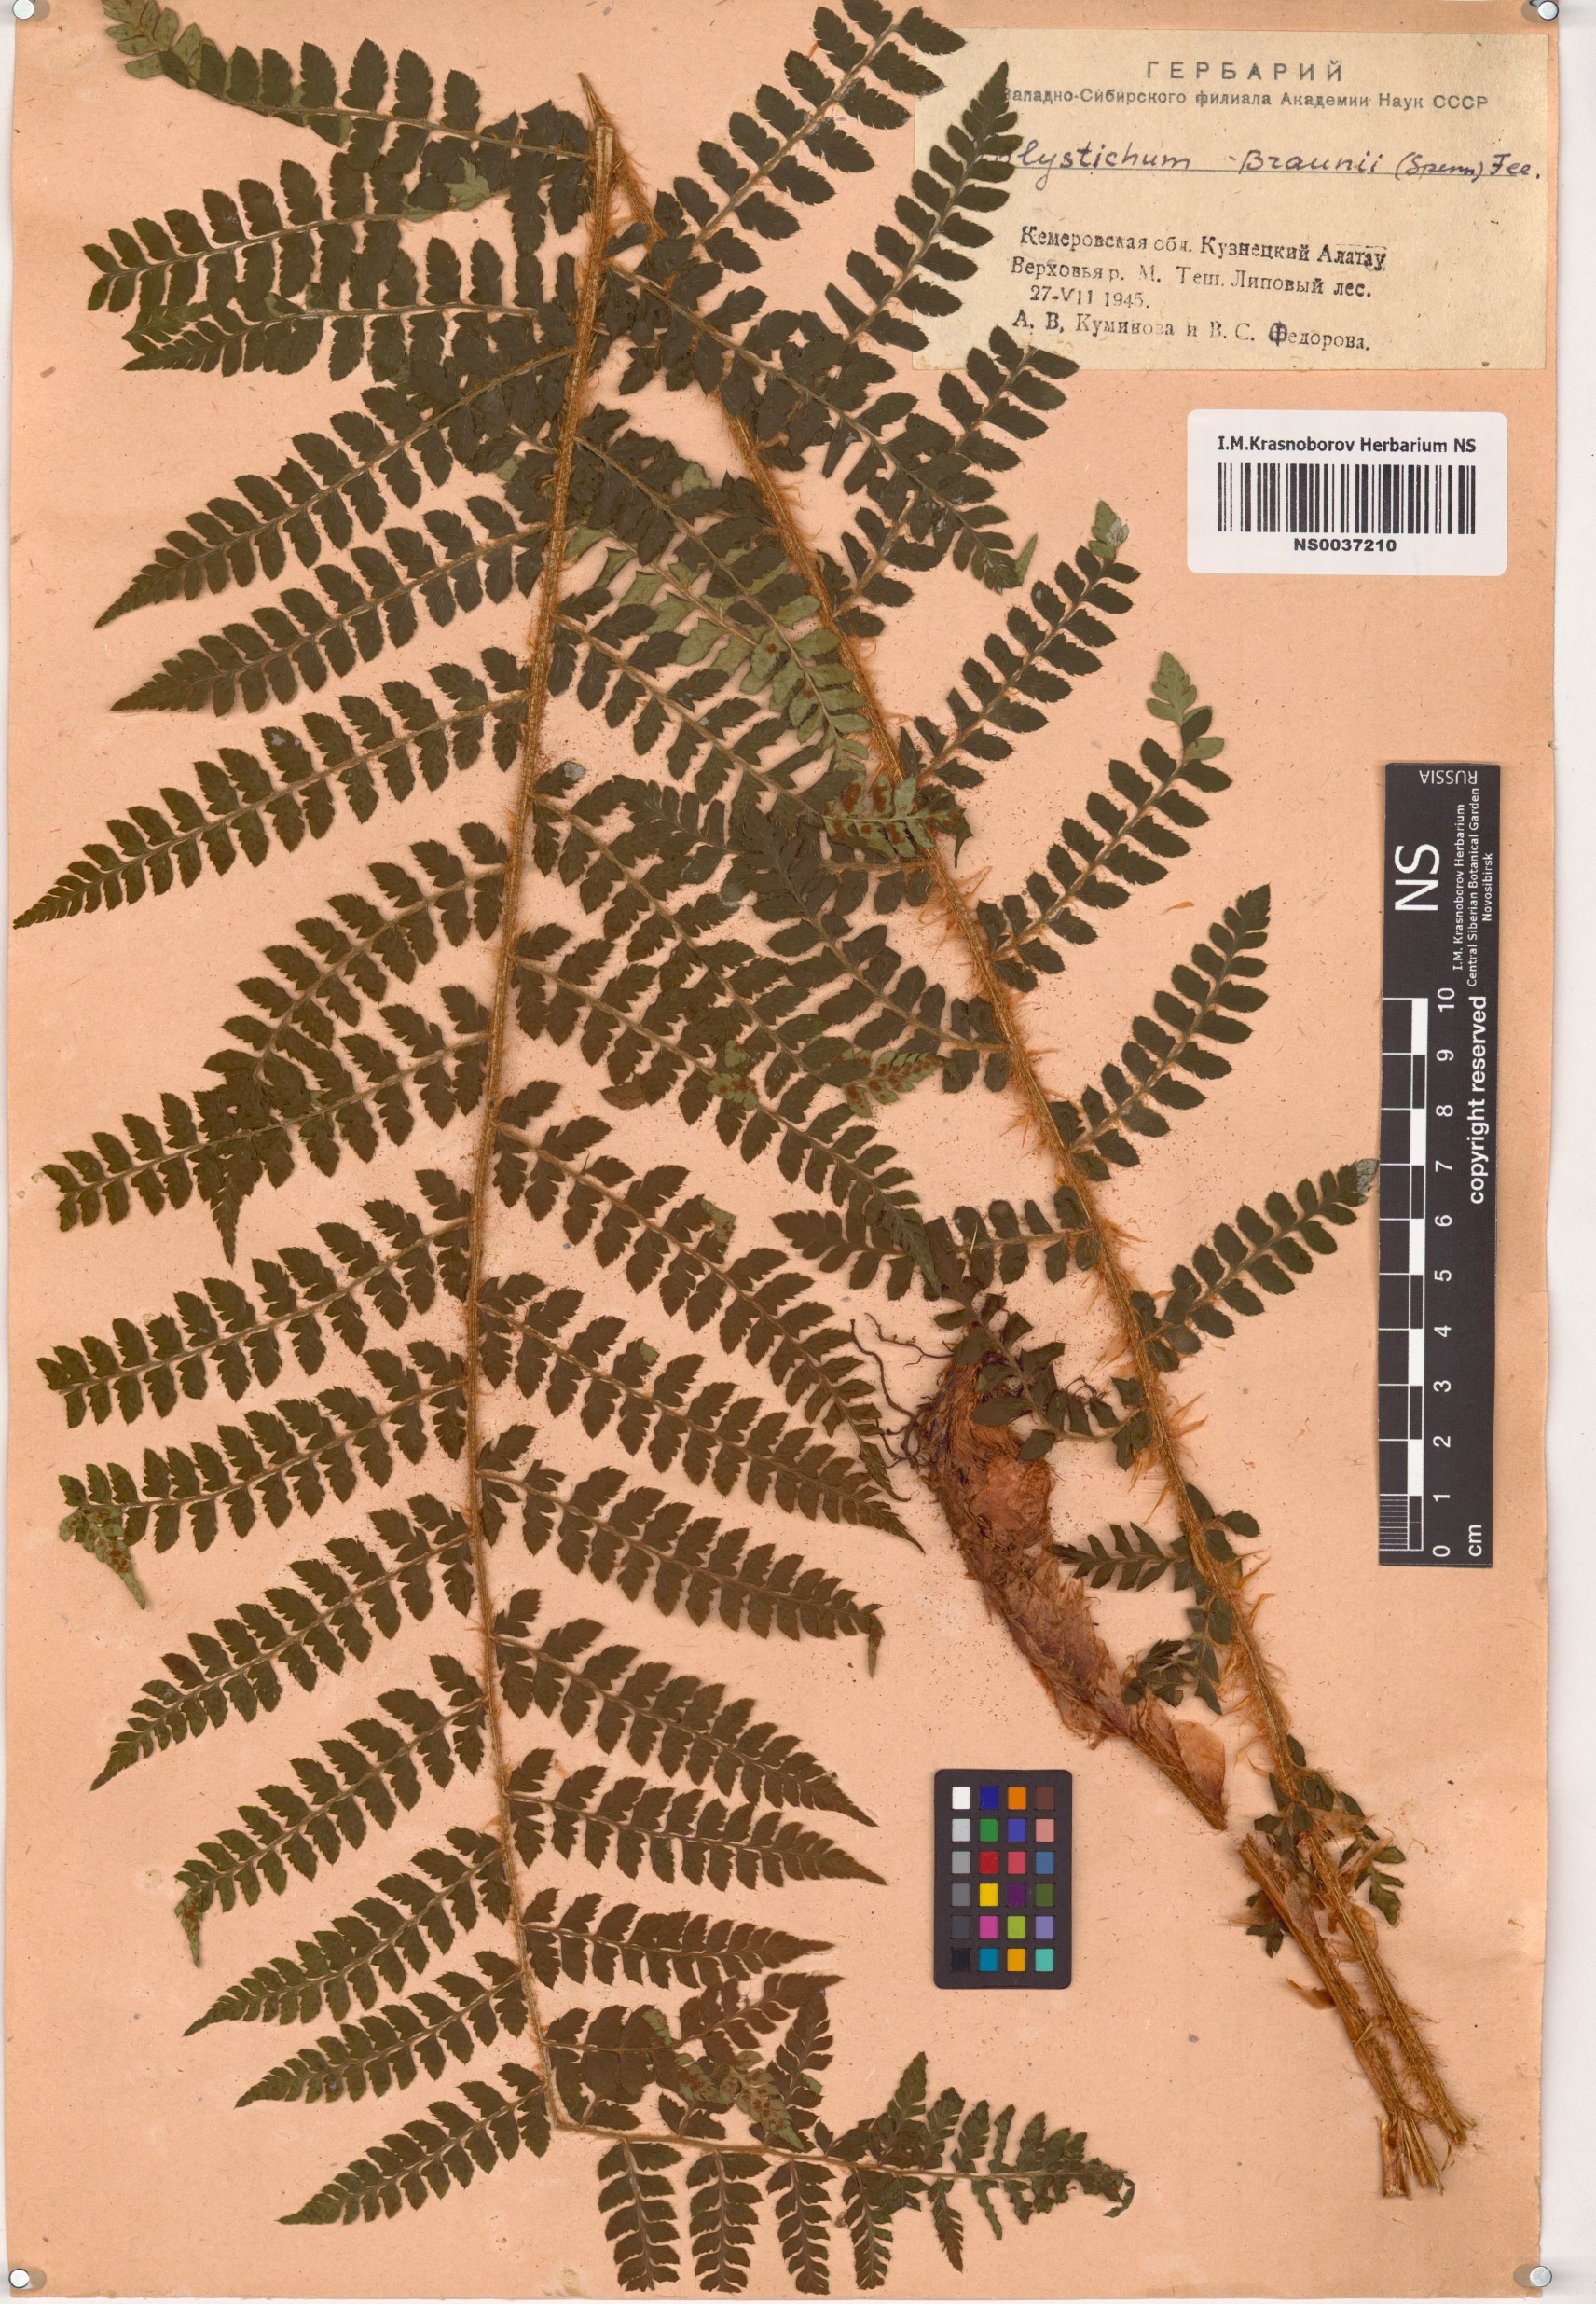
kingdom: Plantae
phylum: Tracheophyta
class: Polypodiopsida
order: Polypodiales
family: Dryopteridaceae
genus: Polystichum
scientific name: Polystichum braunii
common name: Braun's holly fern
